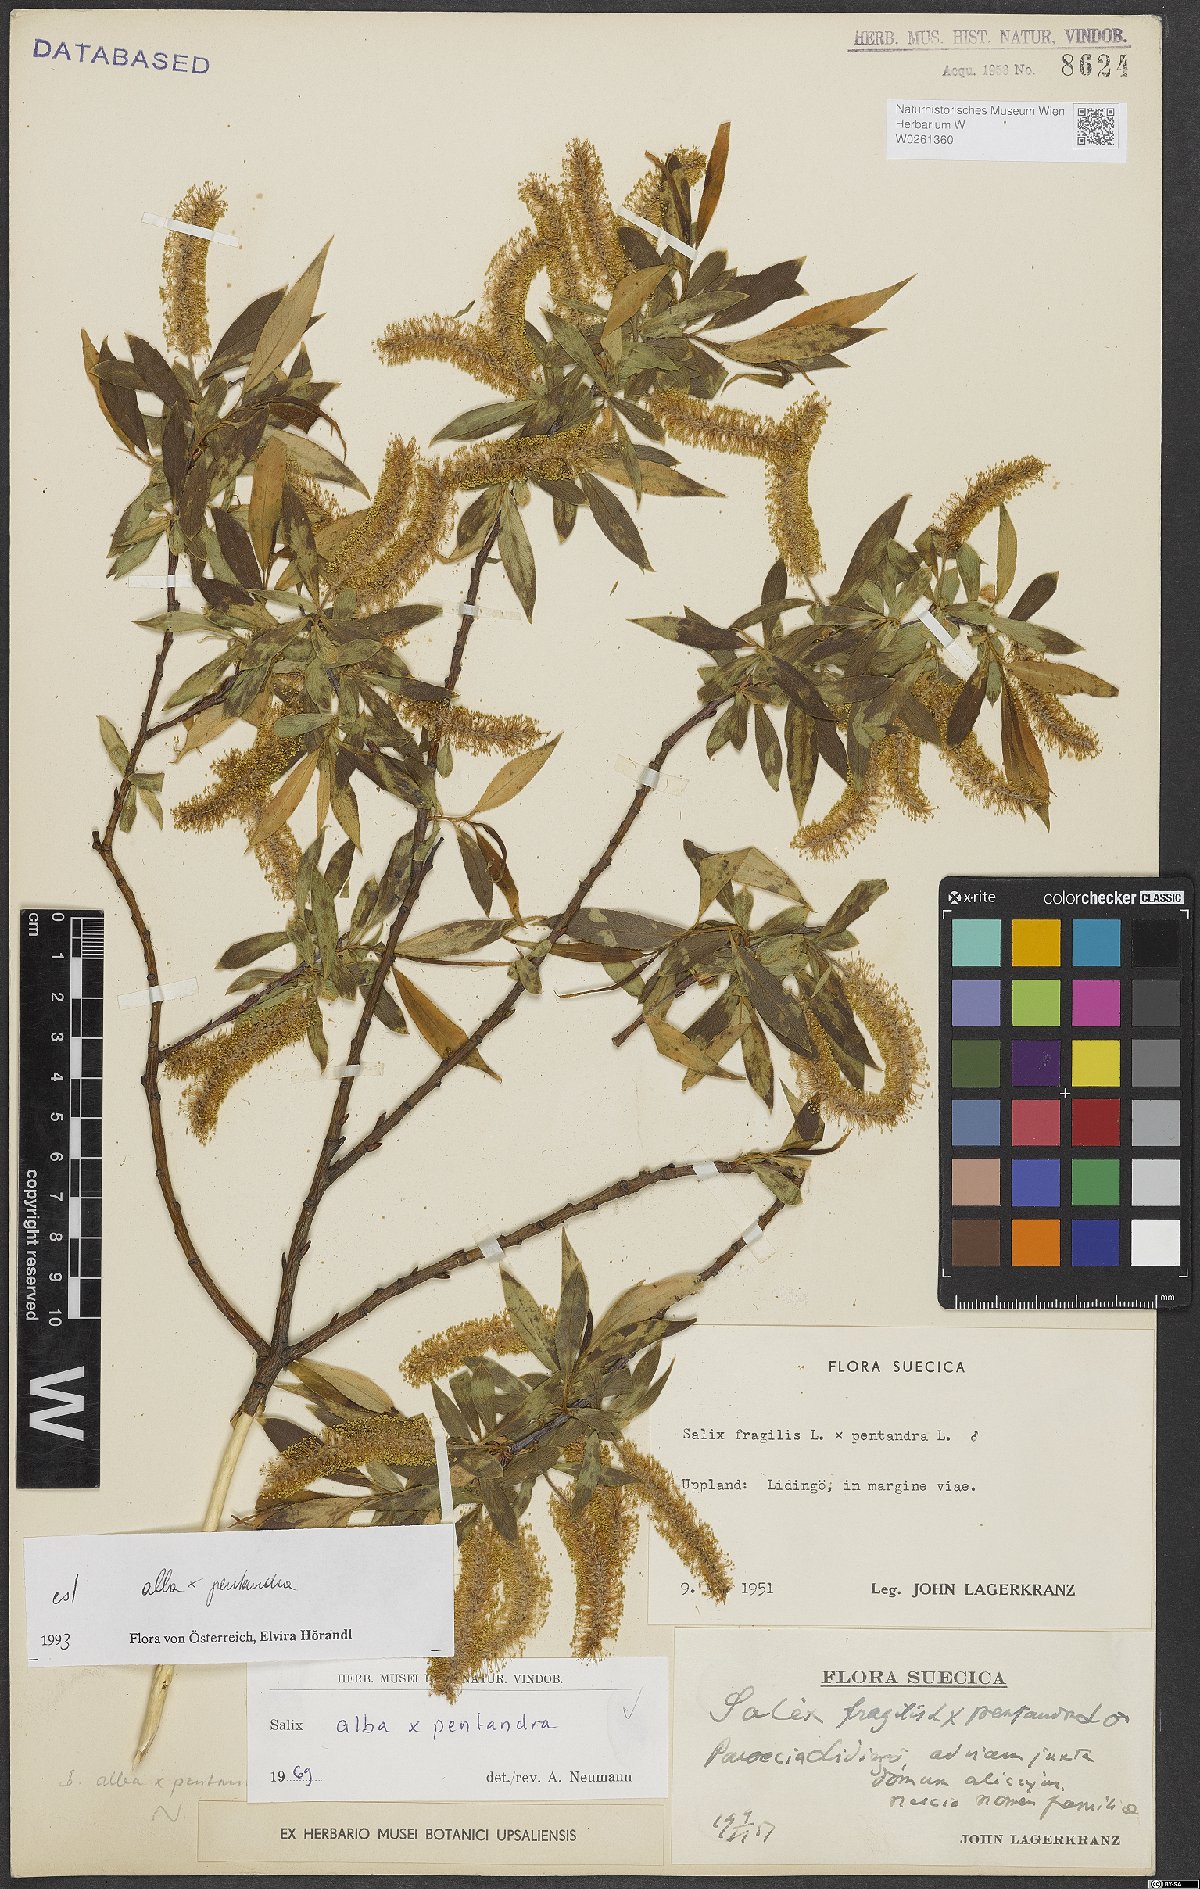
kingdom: Plantae
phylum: Tracheophyta
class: Magnoliopsida
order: Malpighiales
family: Salicaceae
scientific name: Salicaceae
